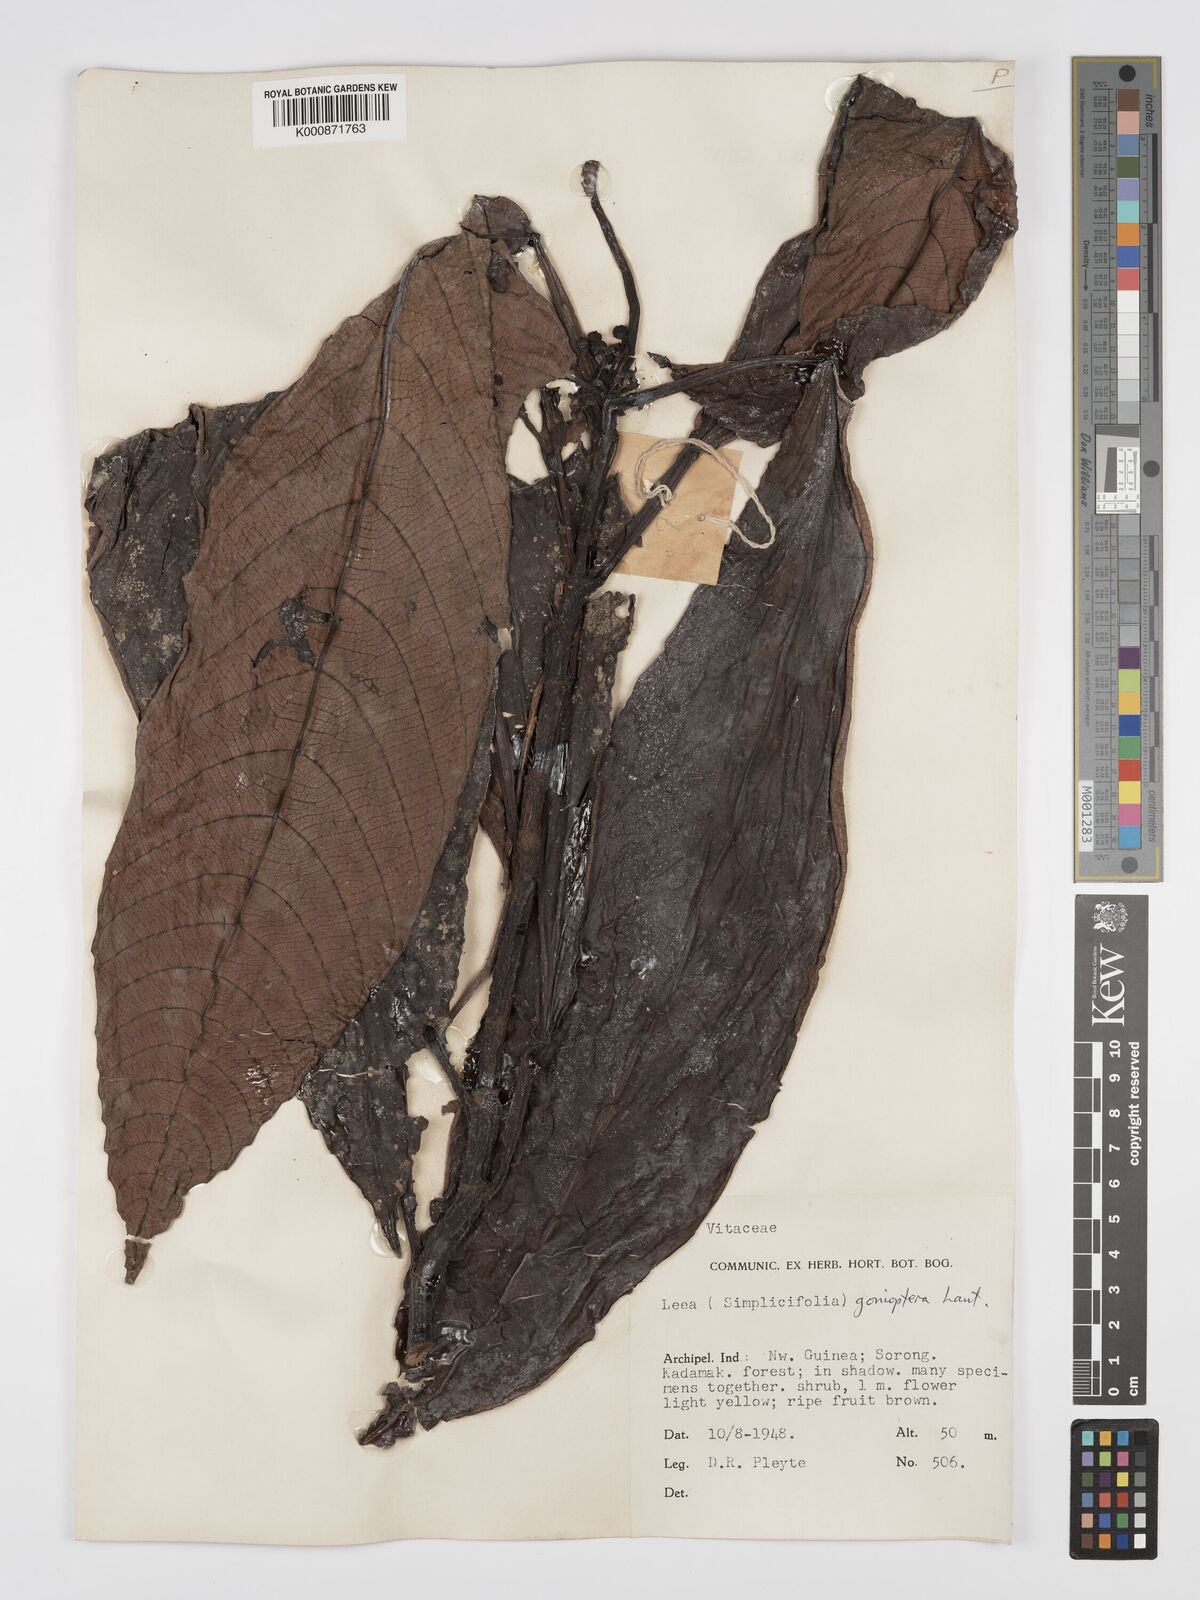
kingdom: Plantae
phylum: Tracheophyta
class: Magnoliopsida
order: Vitales
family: Vitaceae
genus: Leea
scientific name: Leea gonioptera
